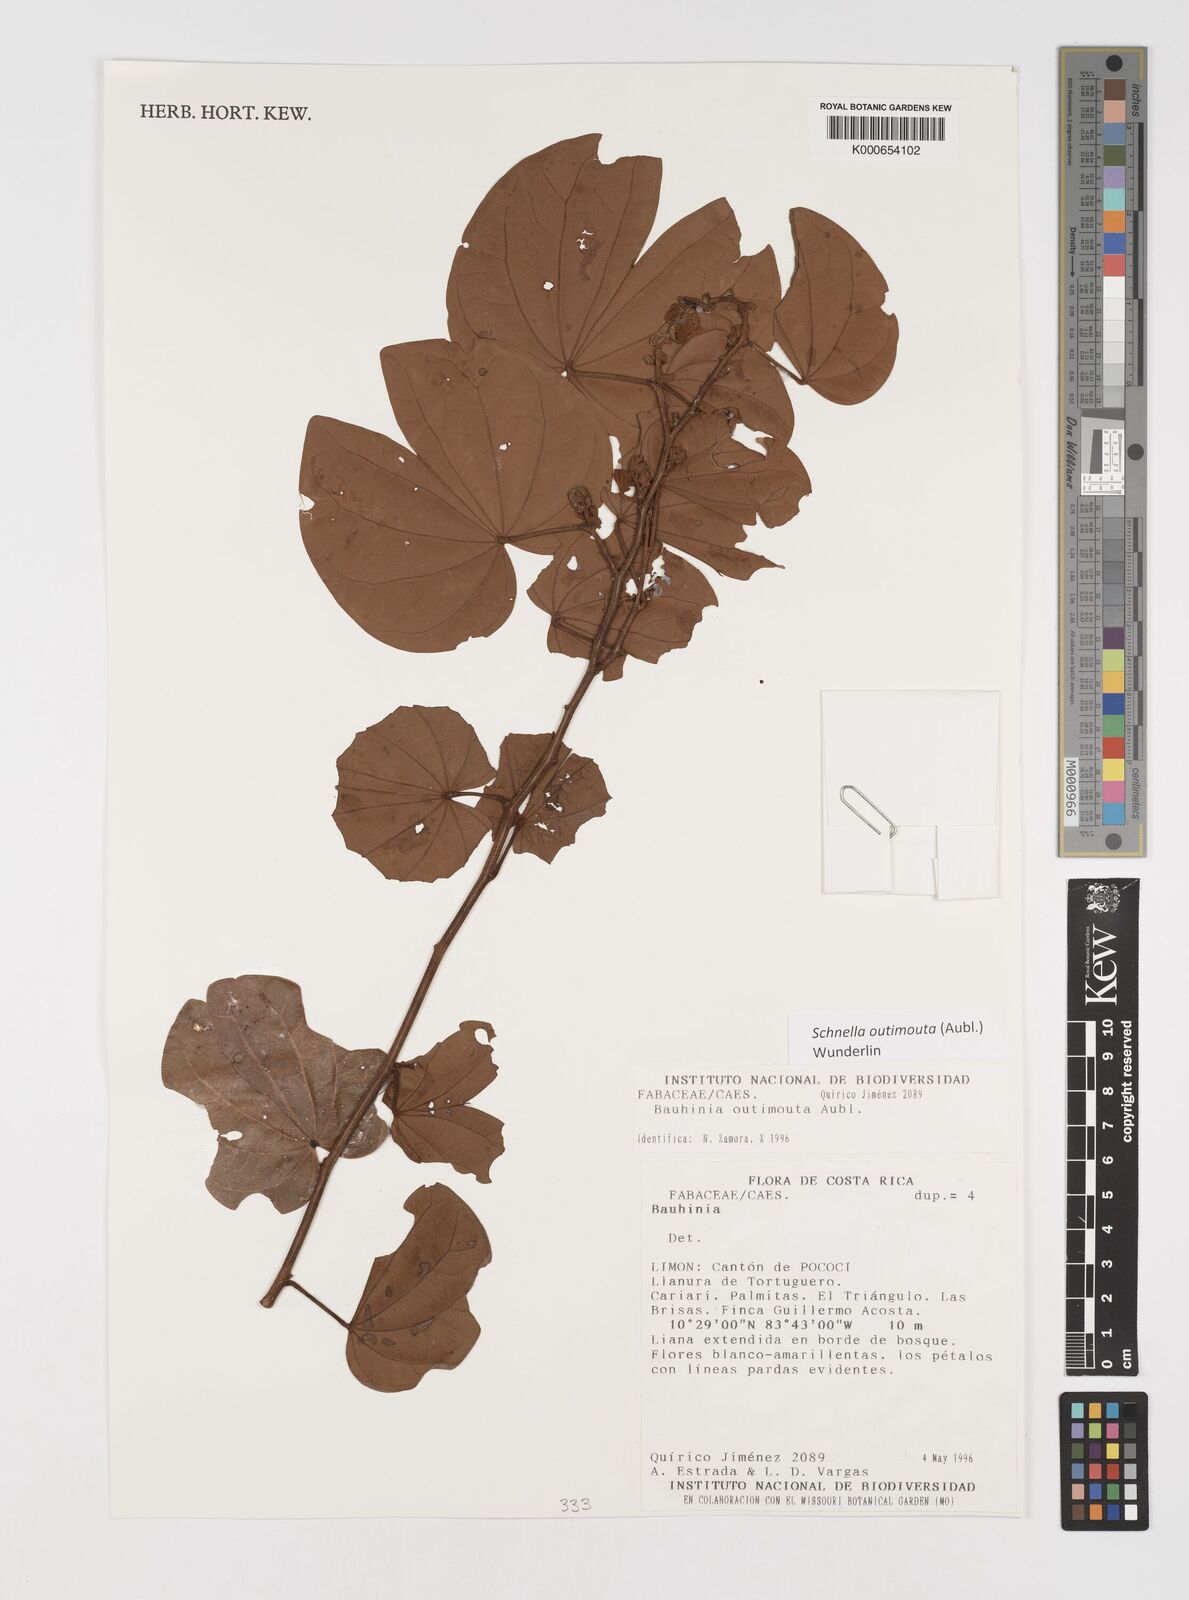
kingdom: Plantae
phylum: Tracheophyta
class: Magnoliopsida
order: Fabales
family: Fabaceae
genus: Schnella
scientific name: Schnella outimouta
